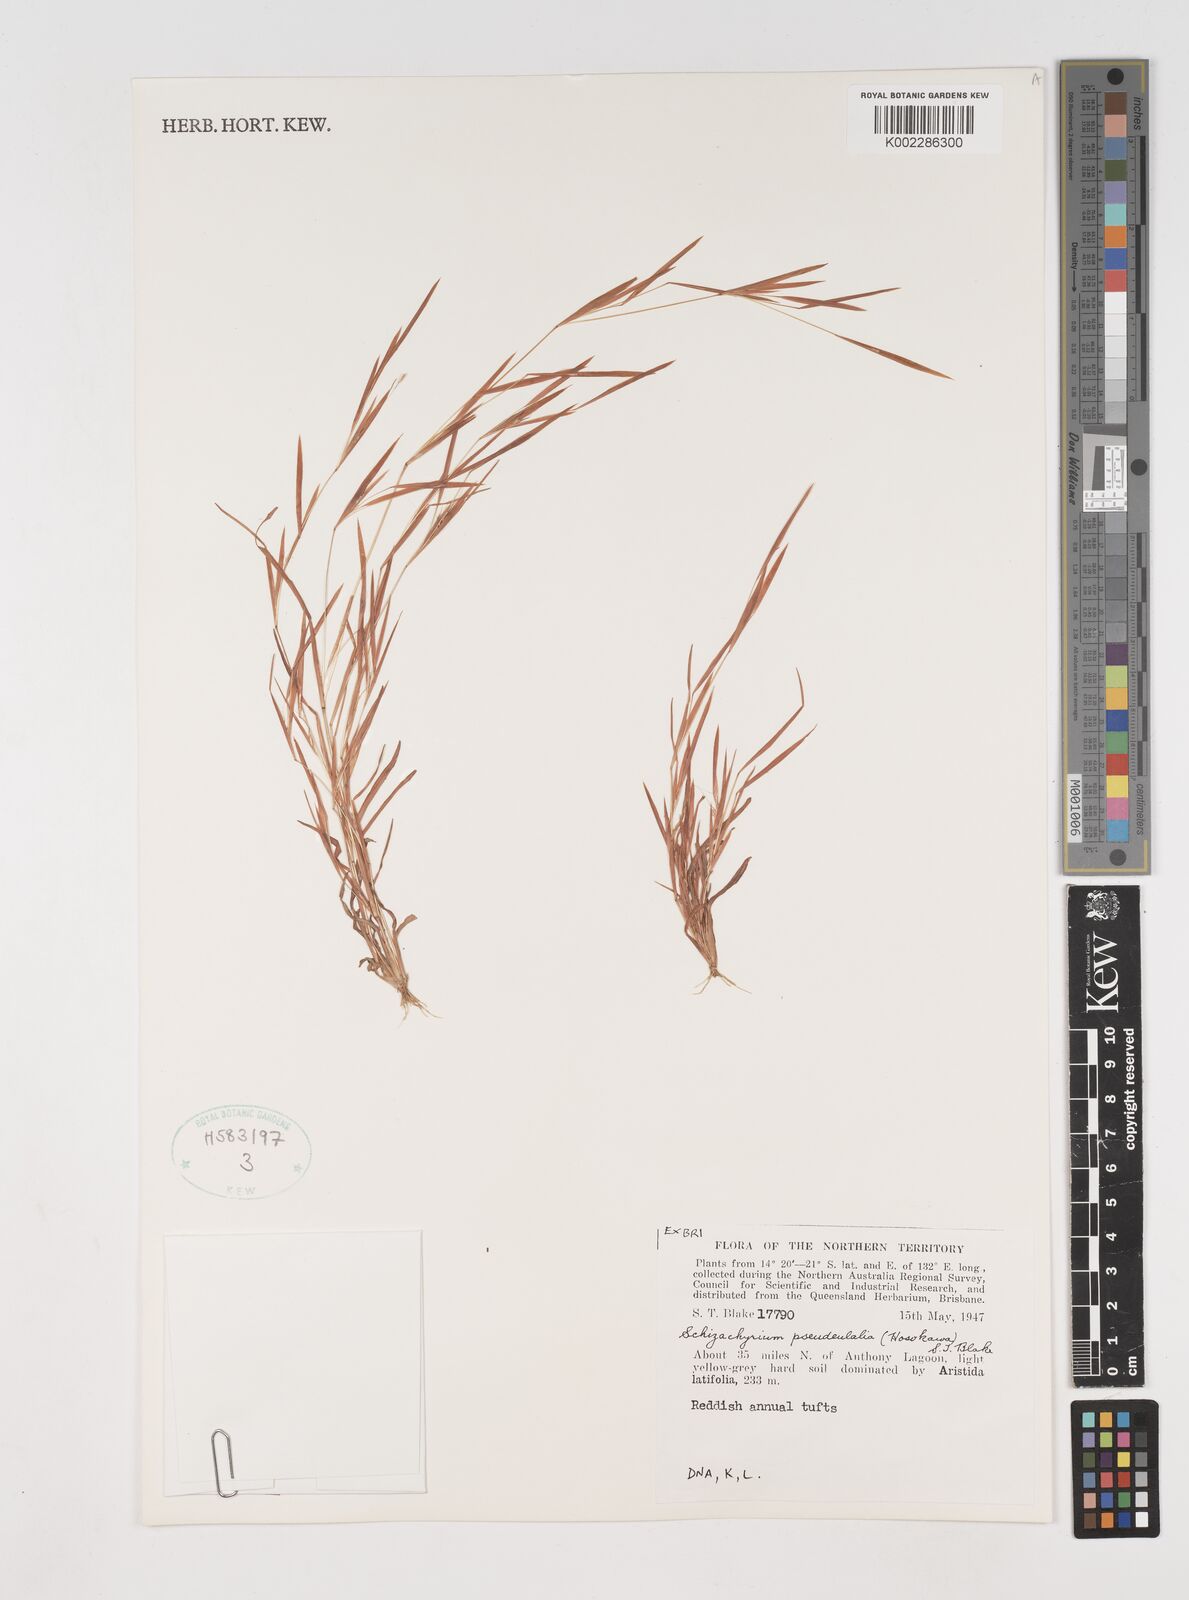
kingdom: Plantae
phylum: Tracheophyta
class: Liliopsida
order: Poales
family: Poaceae
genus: Schizachyrium
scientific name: Schizachyrium pseudeulalia
